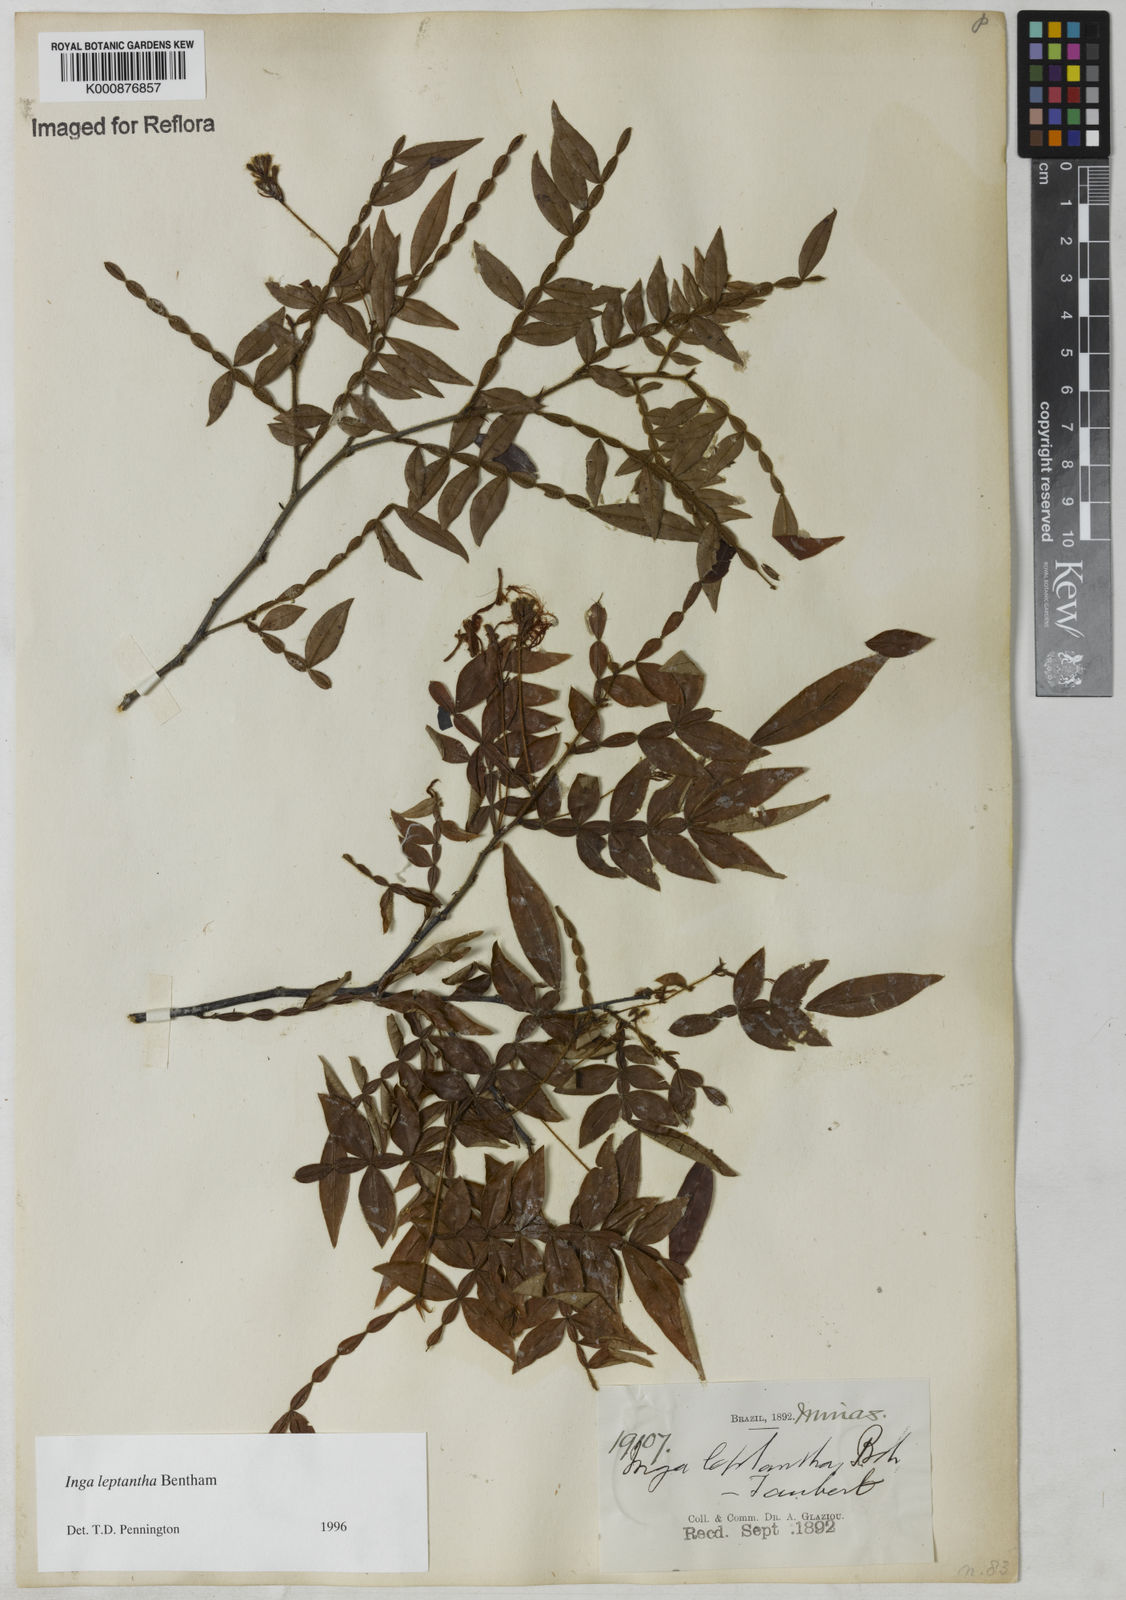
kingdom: Plantae
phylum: Tracheophyta
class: Magnoliopsida
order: Fabales
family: Fabaceae
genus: Inga
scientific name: Inga leptantha
